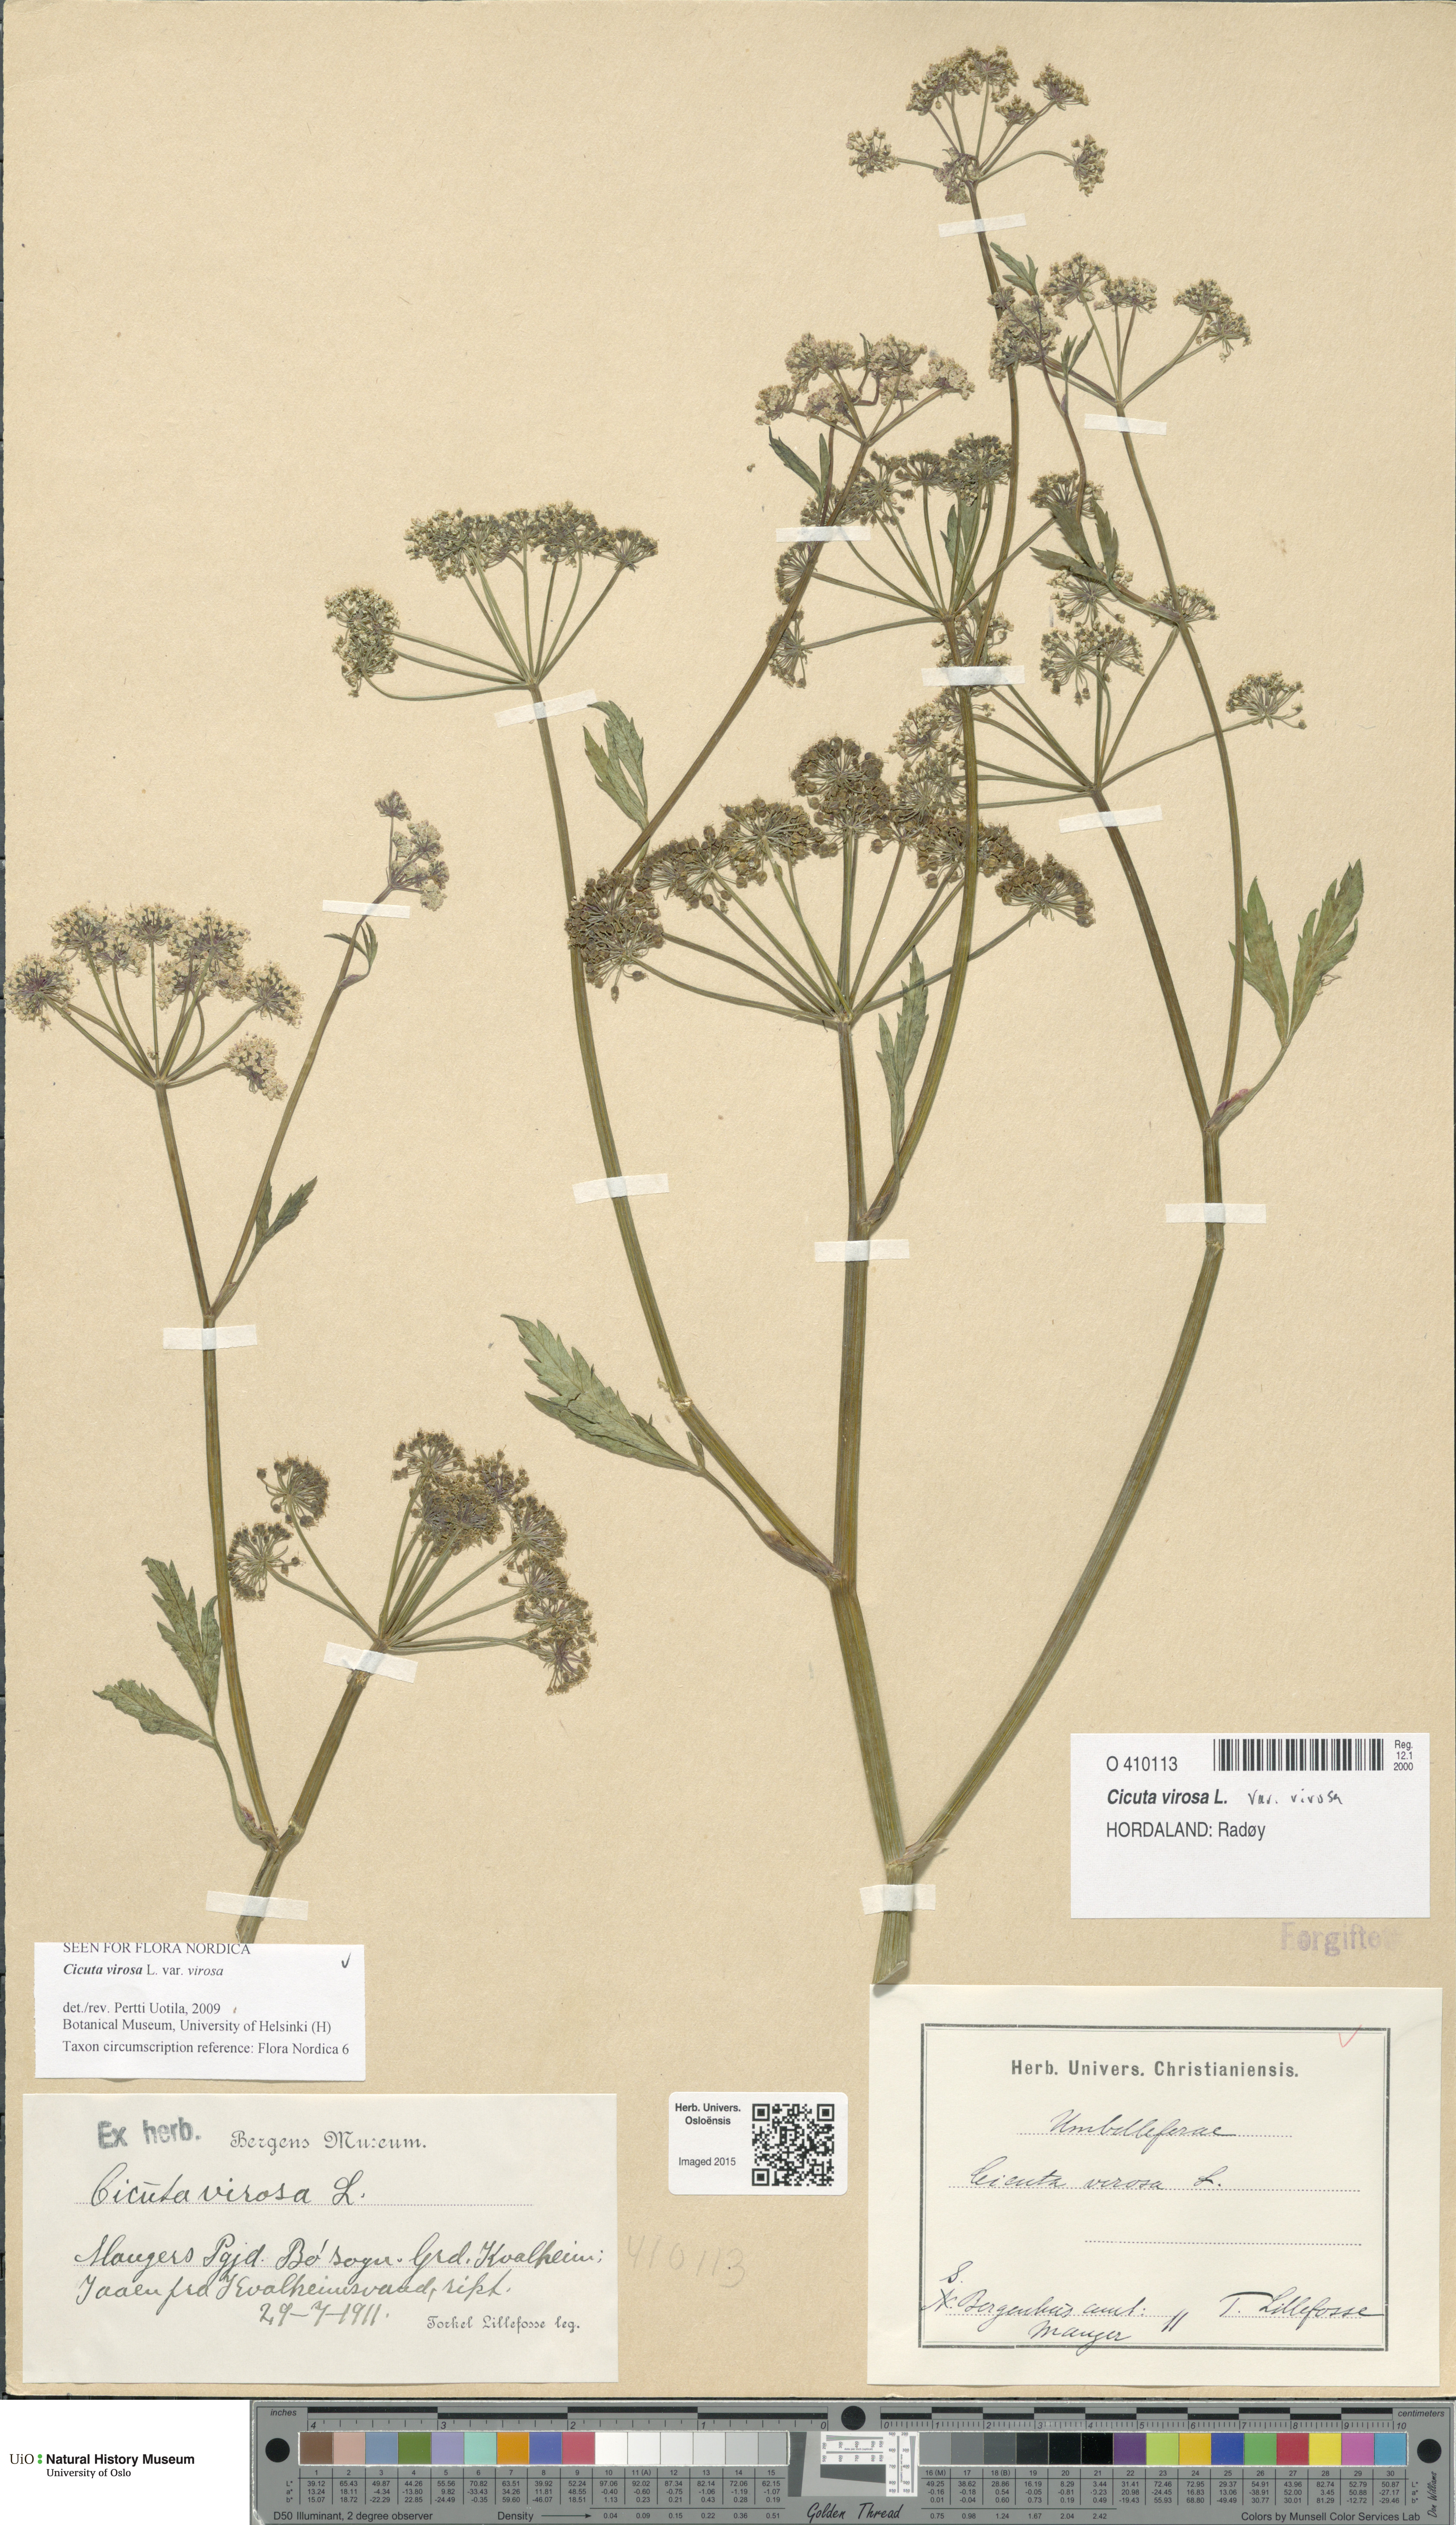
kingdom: Plantae
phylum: Tracheophyta
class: Magnoliopsida
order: Apiales
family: Apiaceae
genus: Cicuta
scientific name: Cicuta virosa
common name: Cowbane
